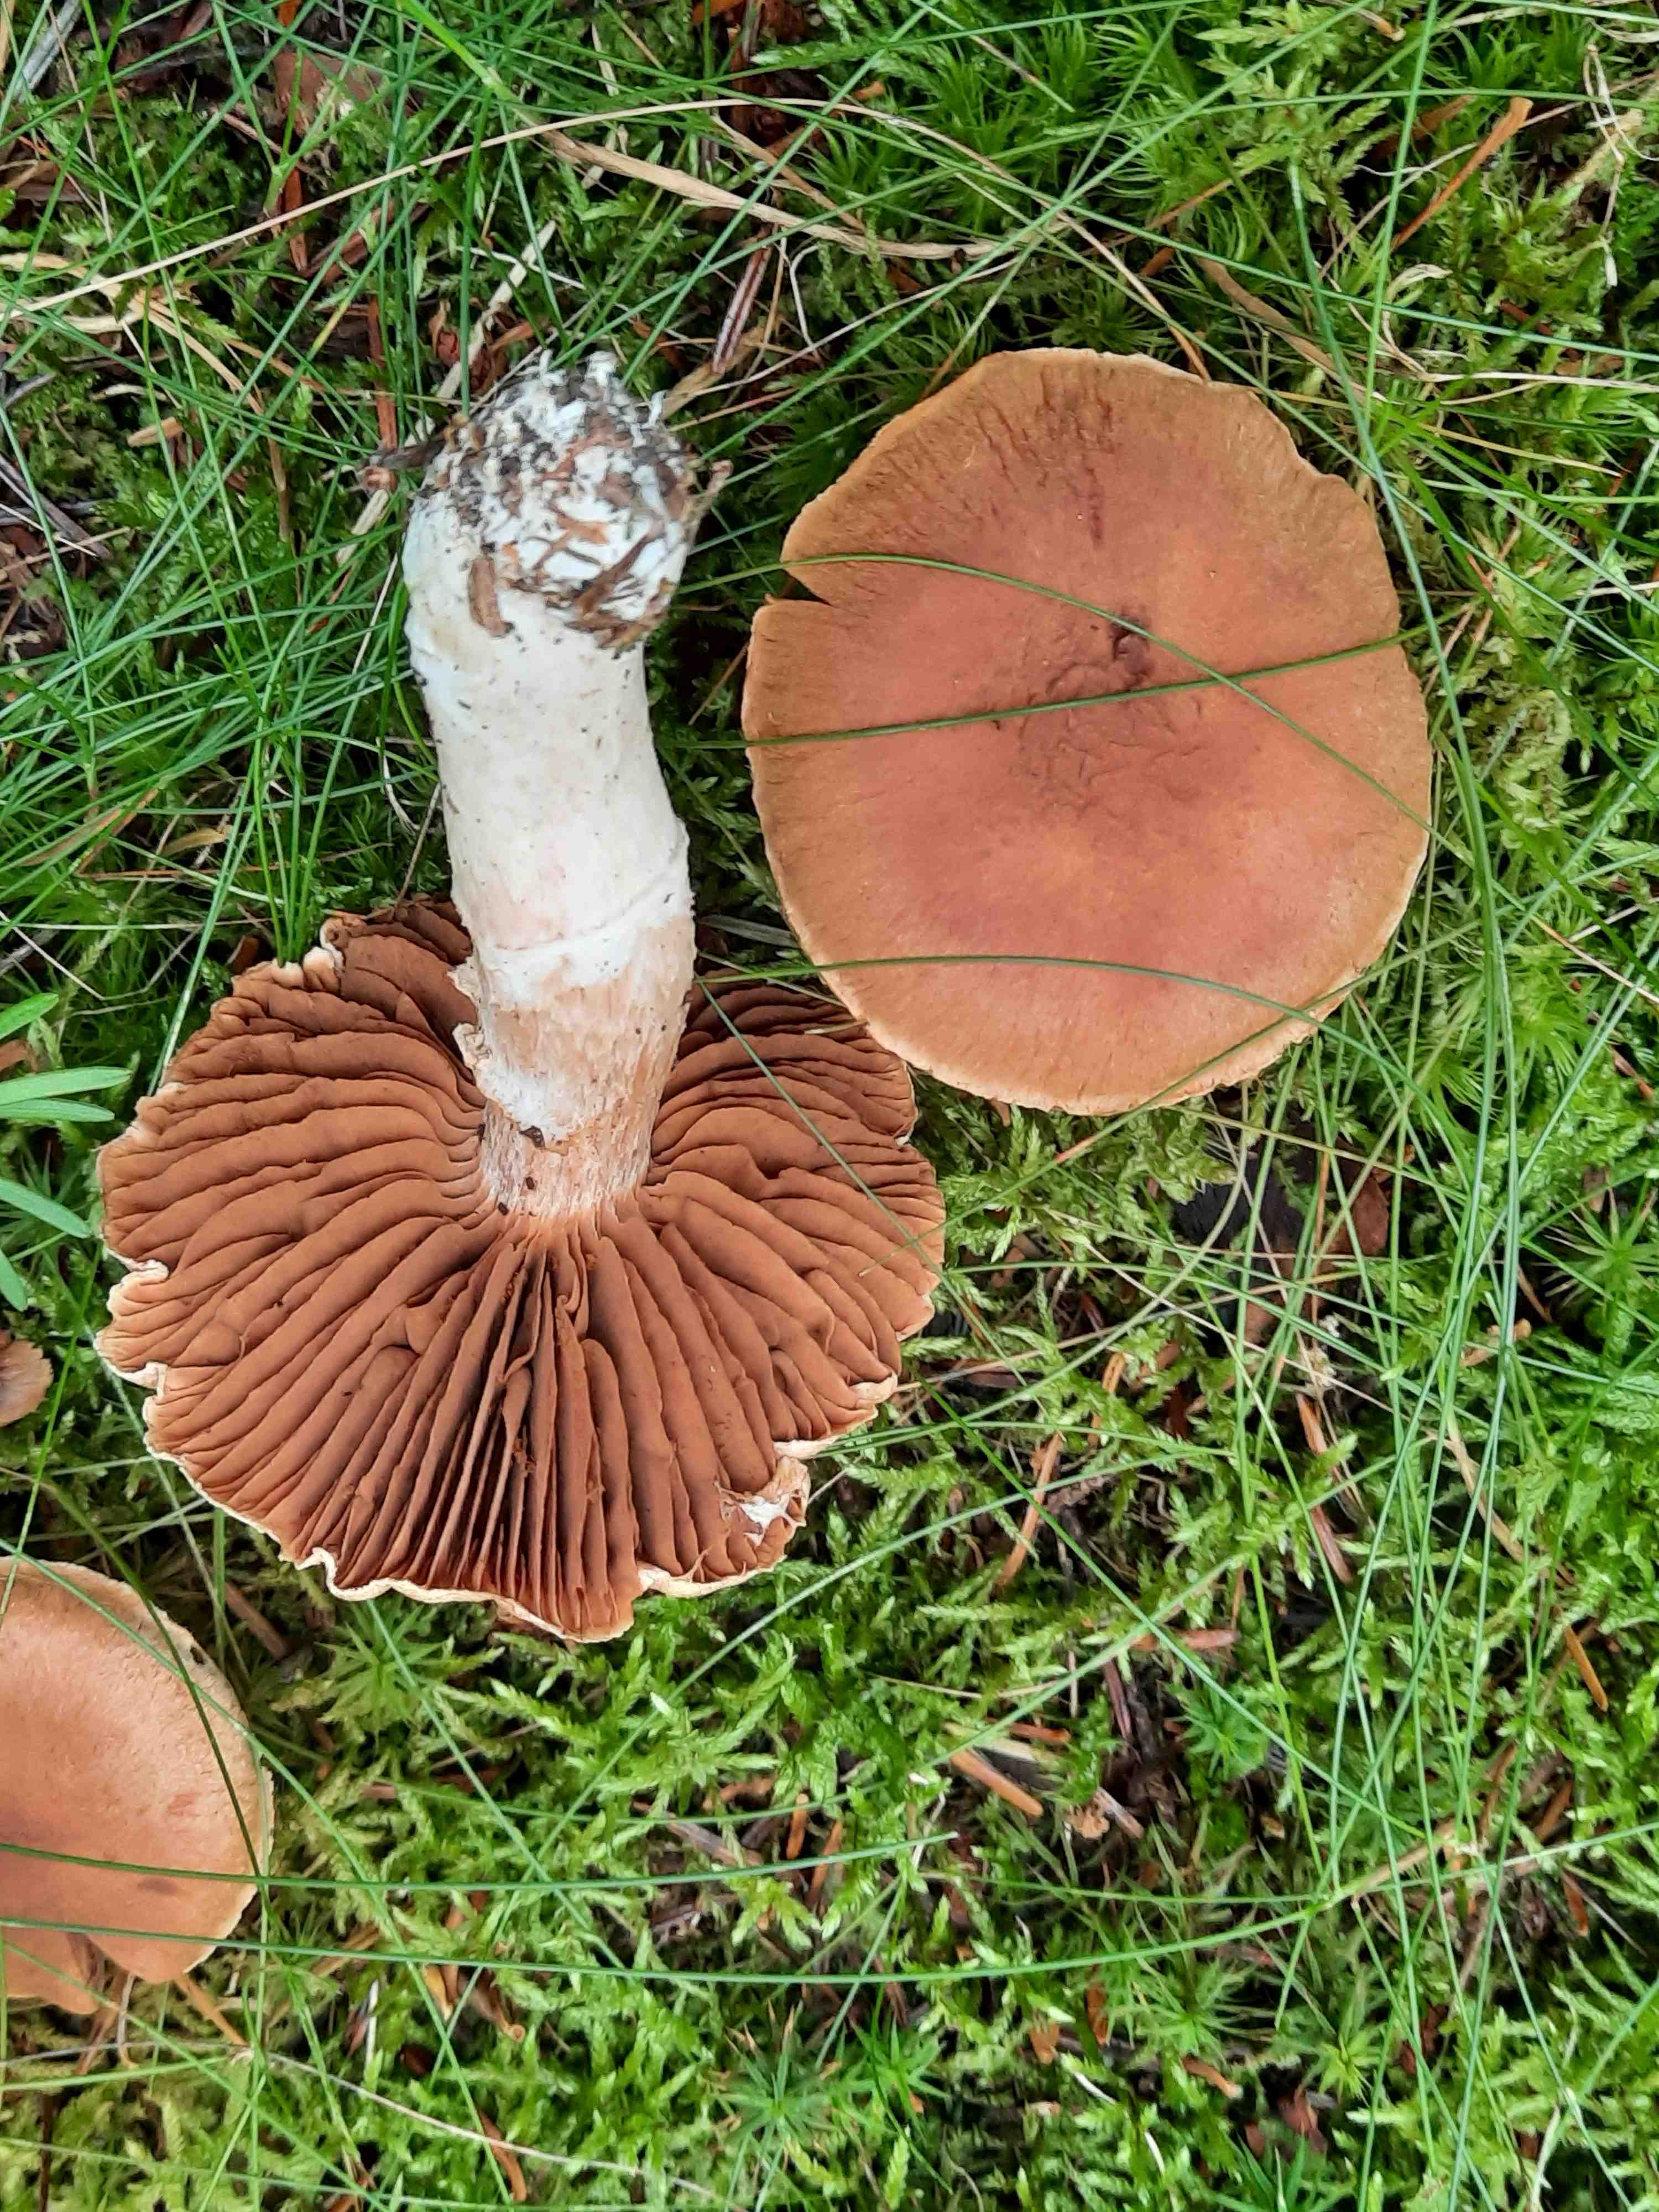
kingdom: Fungi
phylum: Basidiomycota
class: Agaricomycetes
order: Agaricales
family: Cortinariaceae
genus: Cortinarius
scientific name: Cortinarius
